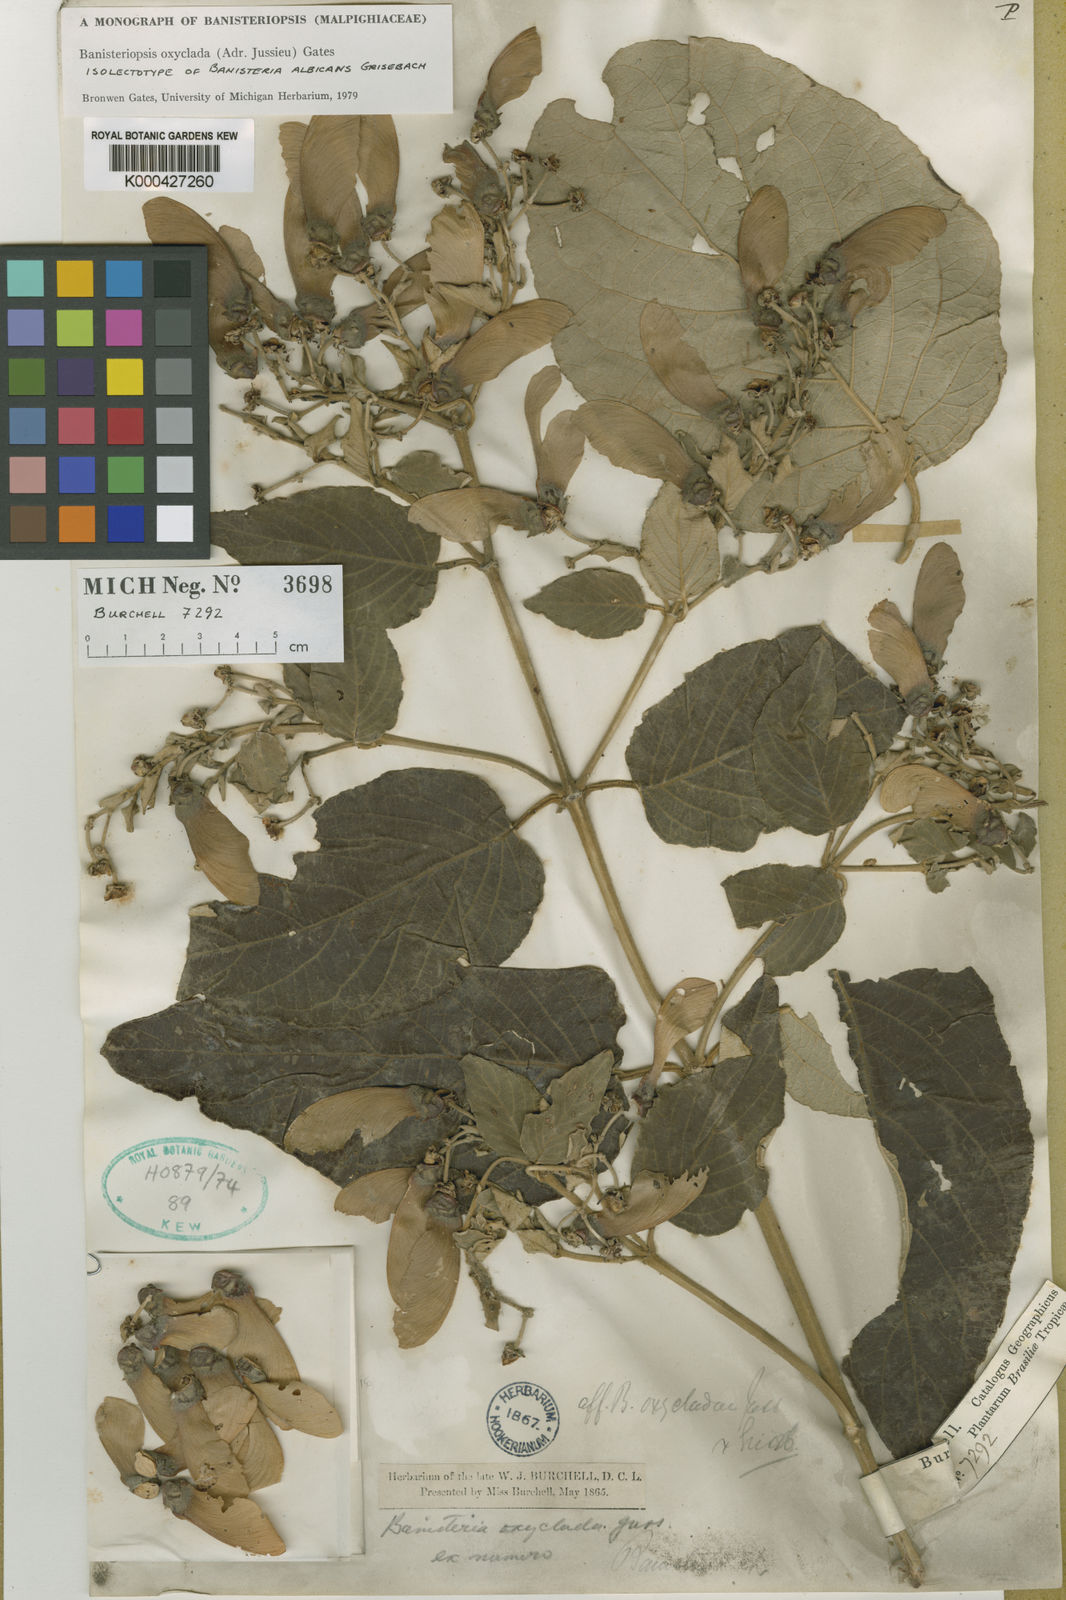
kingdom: Plantae
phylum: Tracheophyta
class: Magnoliopsida
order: Malpighiales
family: Malpighiaceae
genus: Banisteriopsis
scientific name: Banisteriopsis oxyclada
